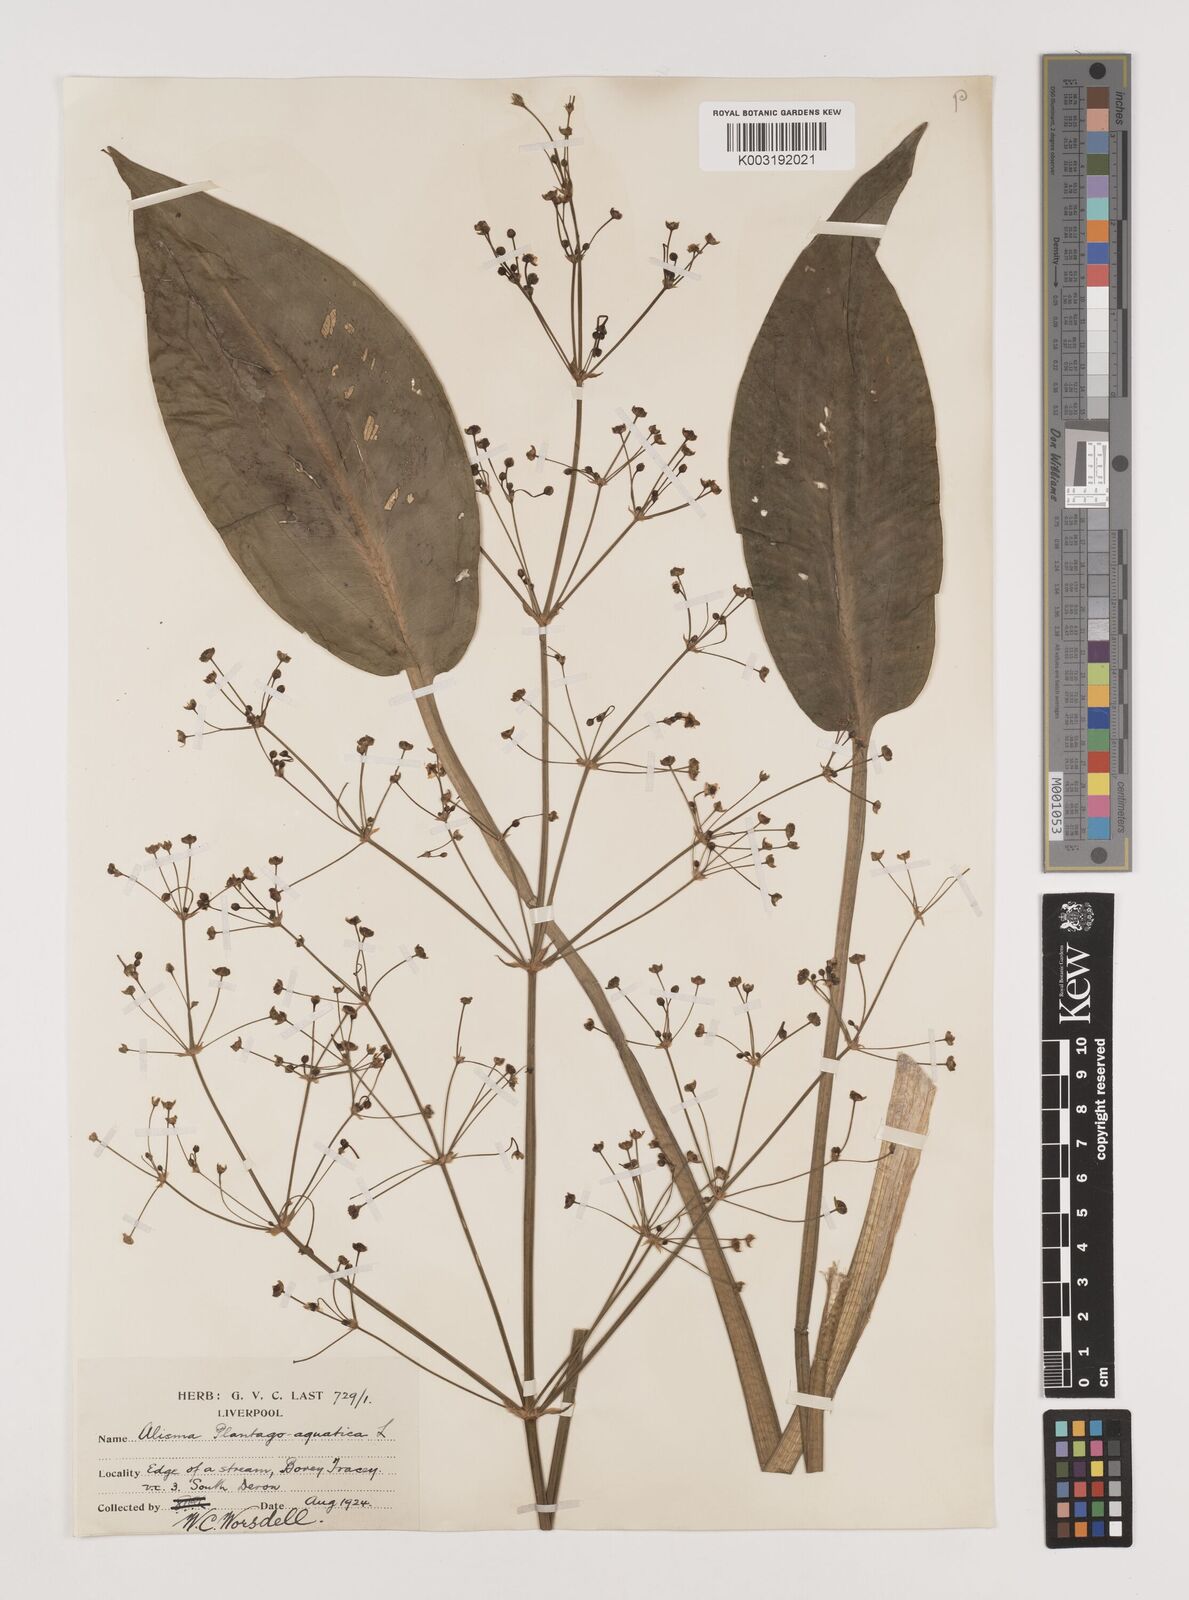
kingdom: Plantae
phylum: Tracheophyta
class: Liliopsida
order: Alismatales
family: Alismataceae
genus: Alisma
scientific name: Alisma plantago-aquatica
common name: Water-plantain
